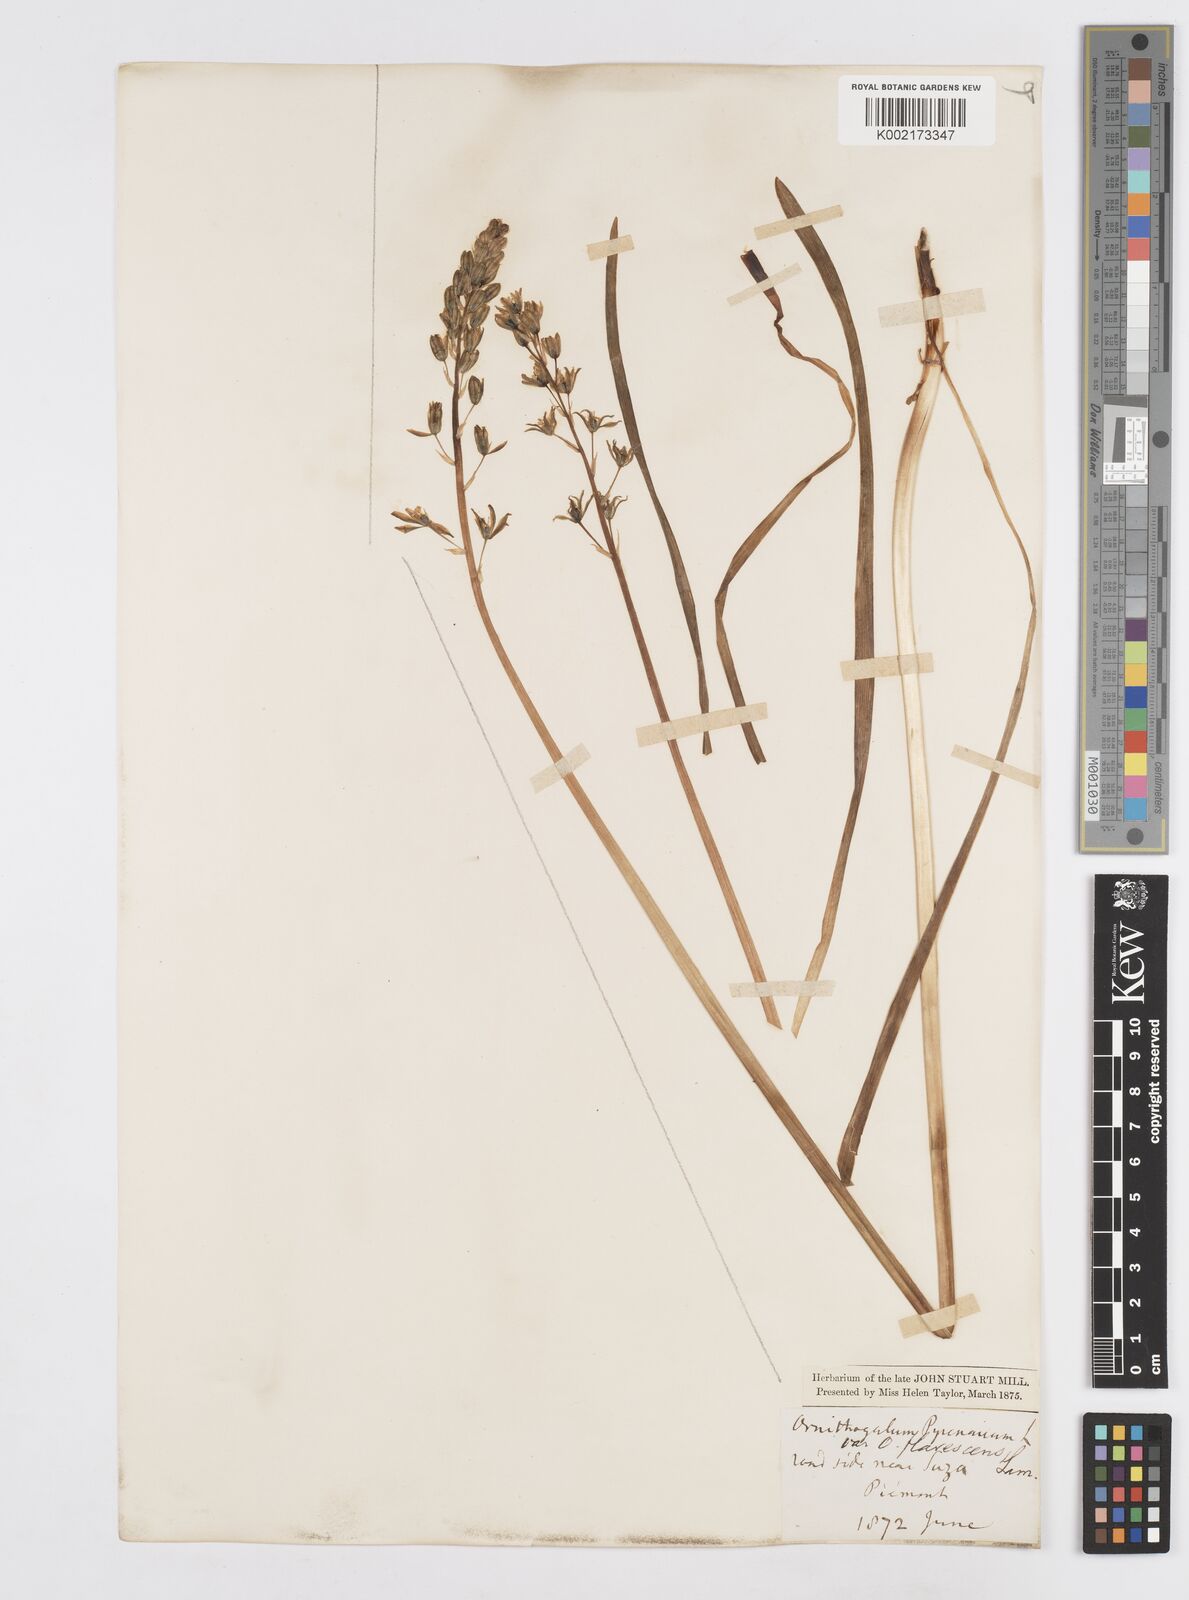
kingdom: Plantae
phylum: Tracheophyta
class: Liliopsida
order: Asparagales
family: Asparagaceae
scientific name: Asparagaceae
